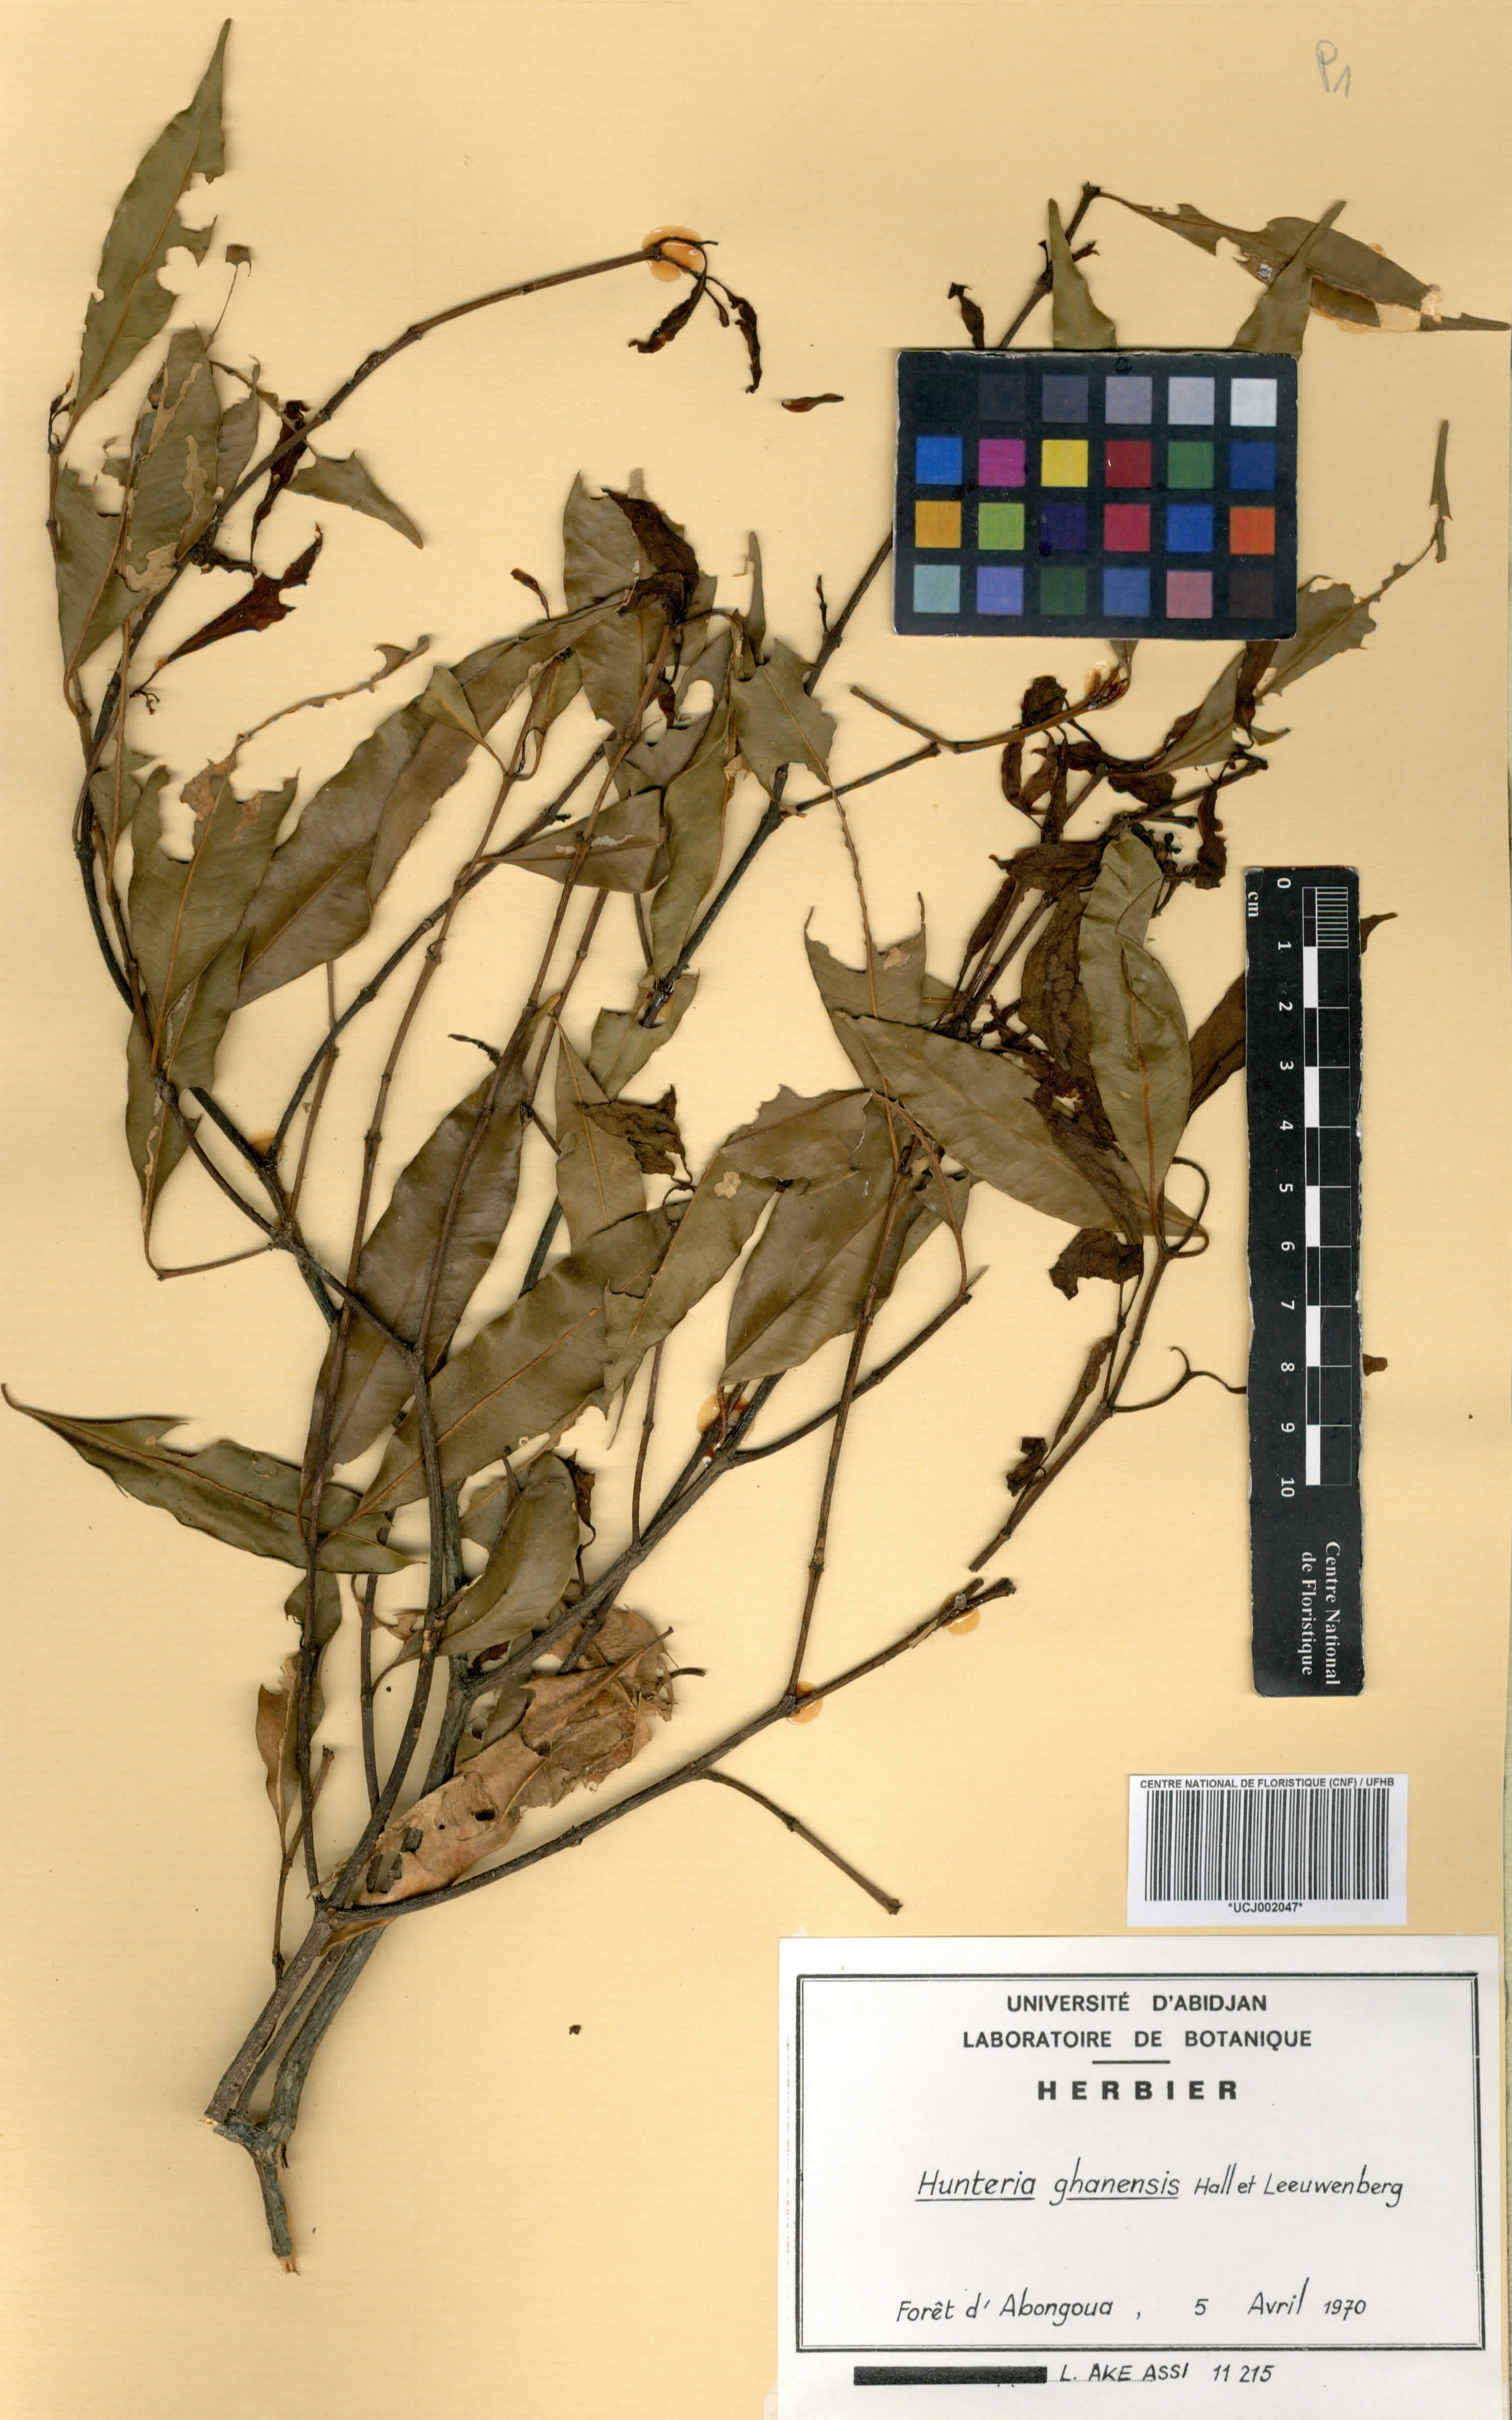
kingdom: Plantae
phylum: Tracheophyta
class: Magnoliopsida
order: Gentianales
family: Apocynaceae
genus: Hunteria
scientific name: Hunteria ghanensis
